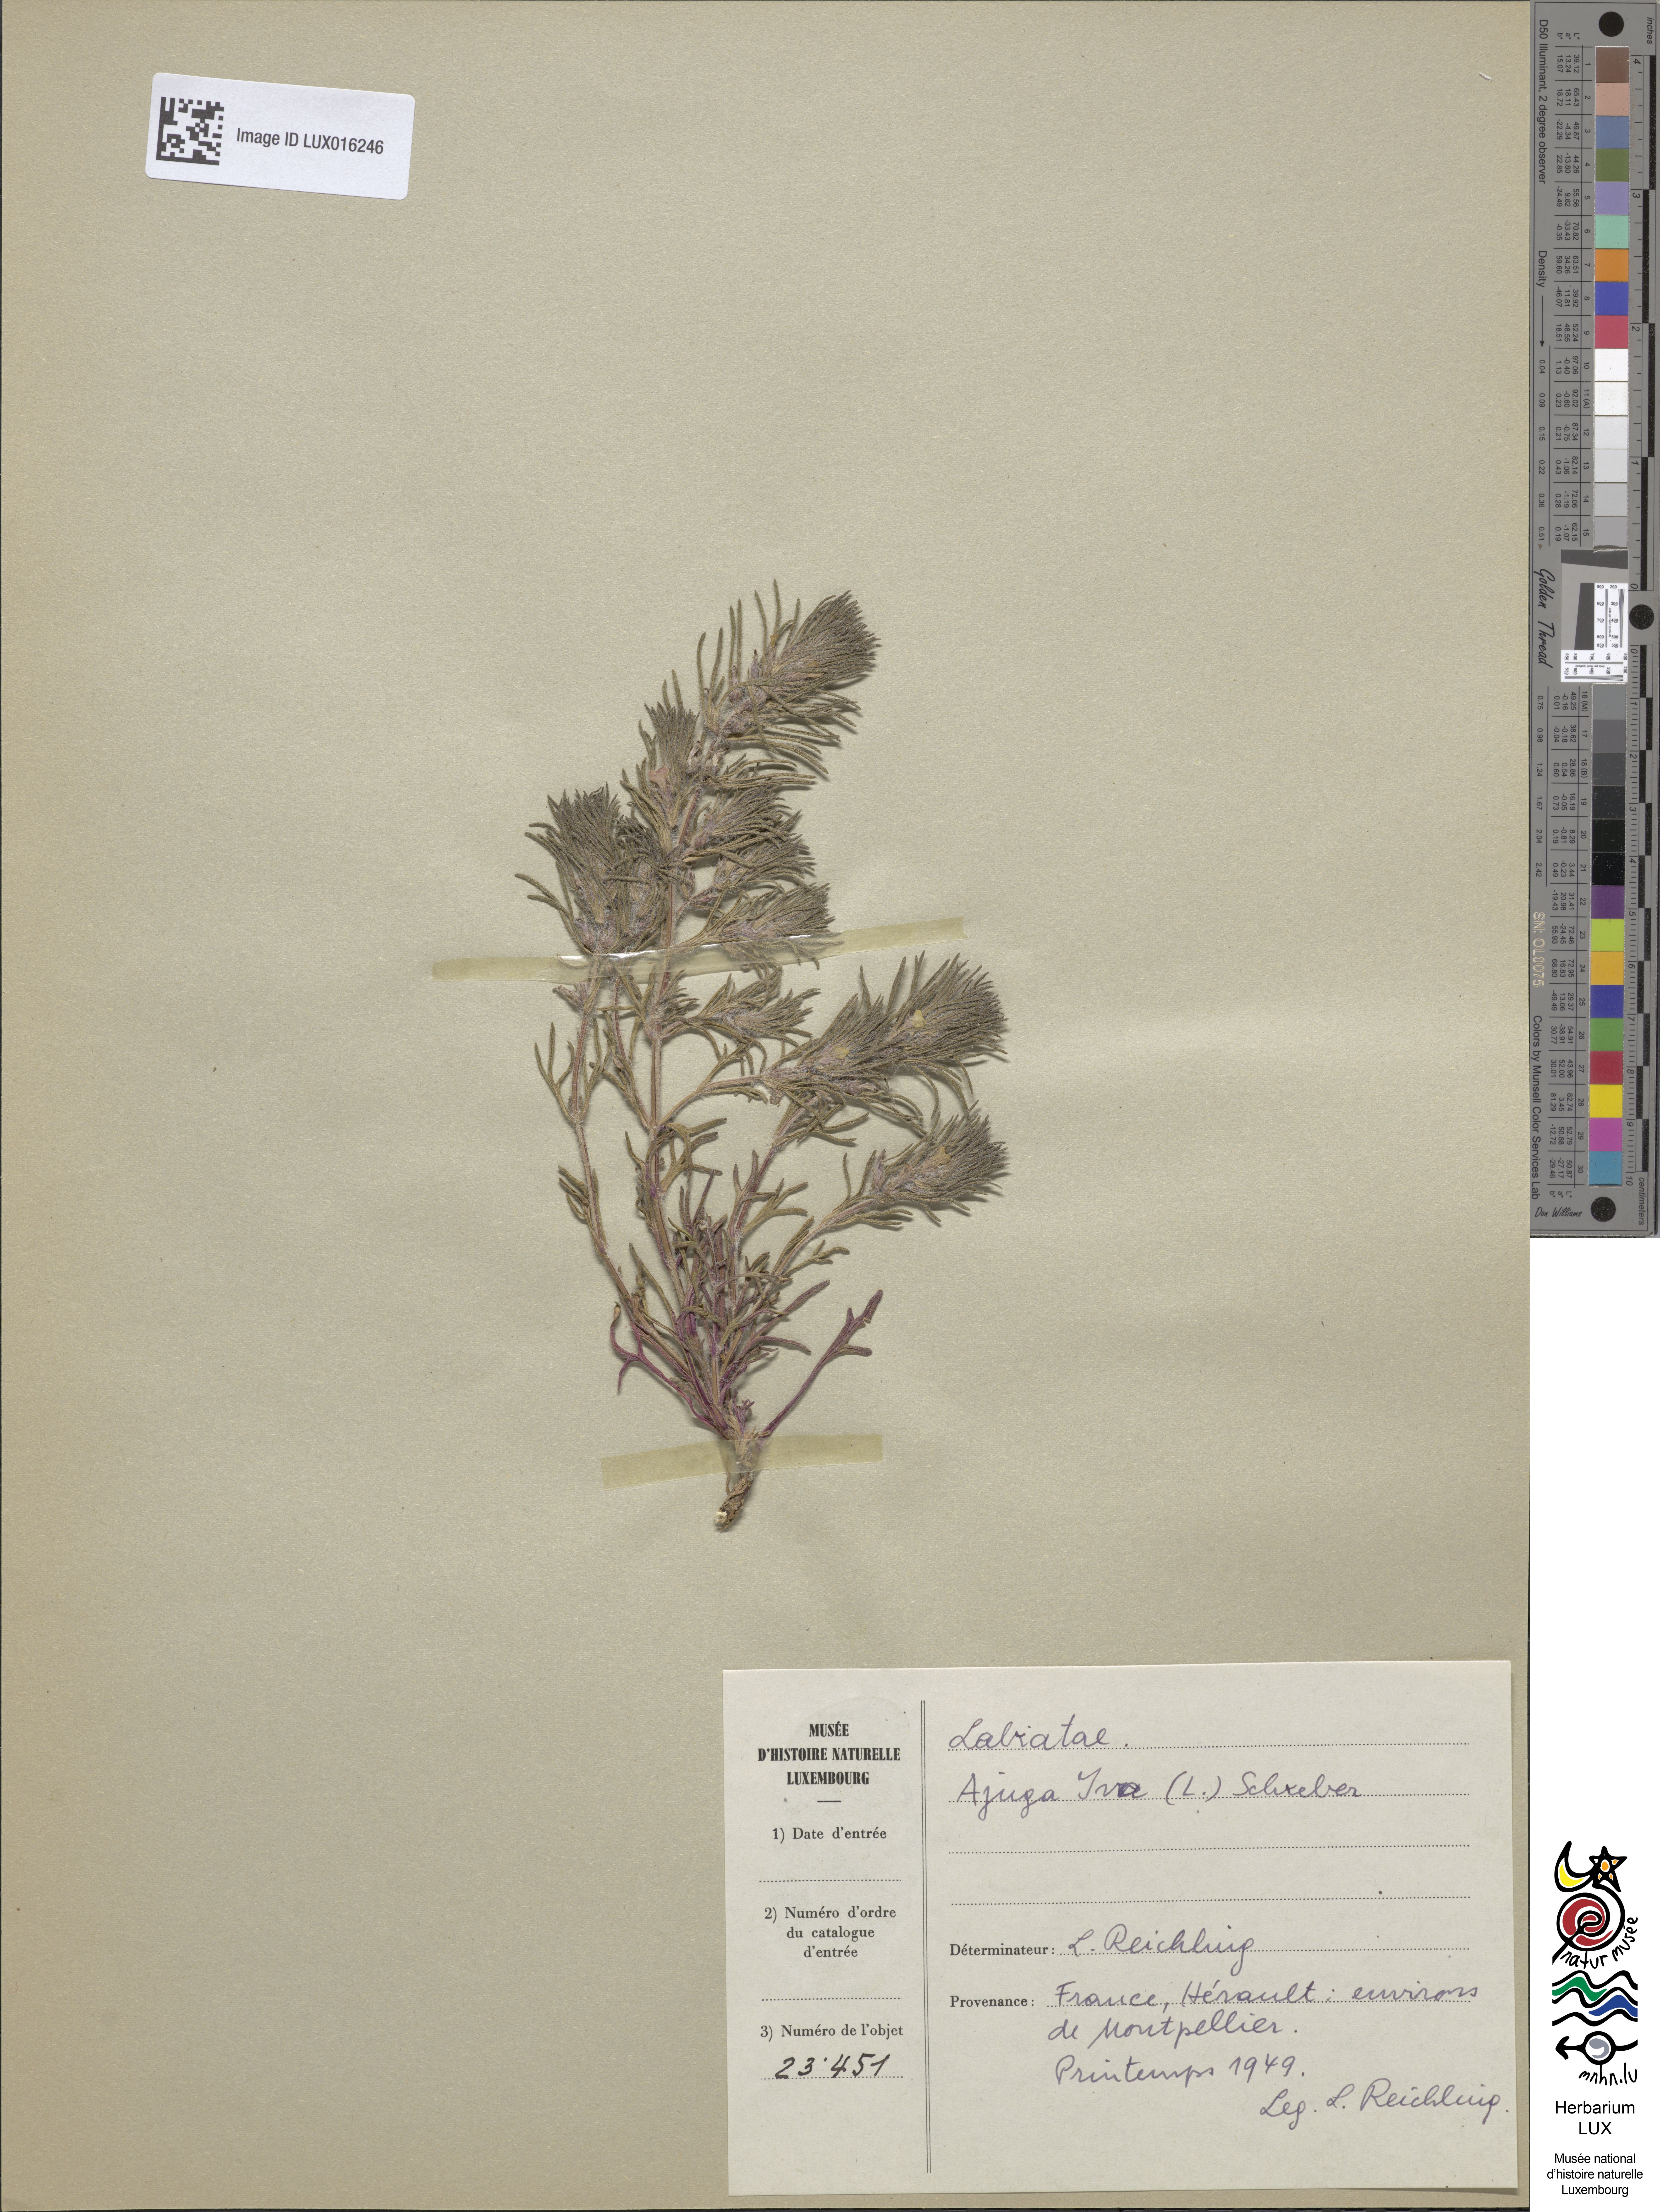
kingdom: Plantae
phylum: Tracheophyta
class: Magnoliopsida
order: Lamiales
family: Lamiaceae
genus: Ajuga
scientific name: Ajuga iva
